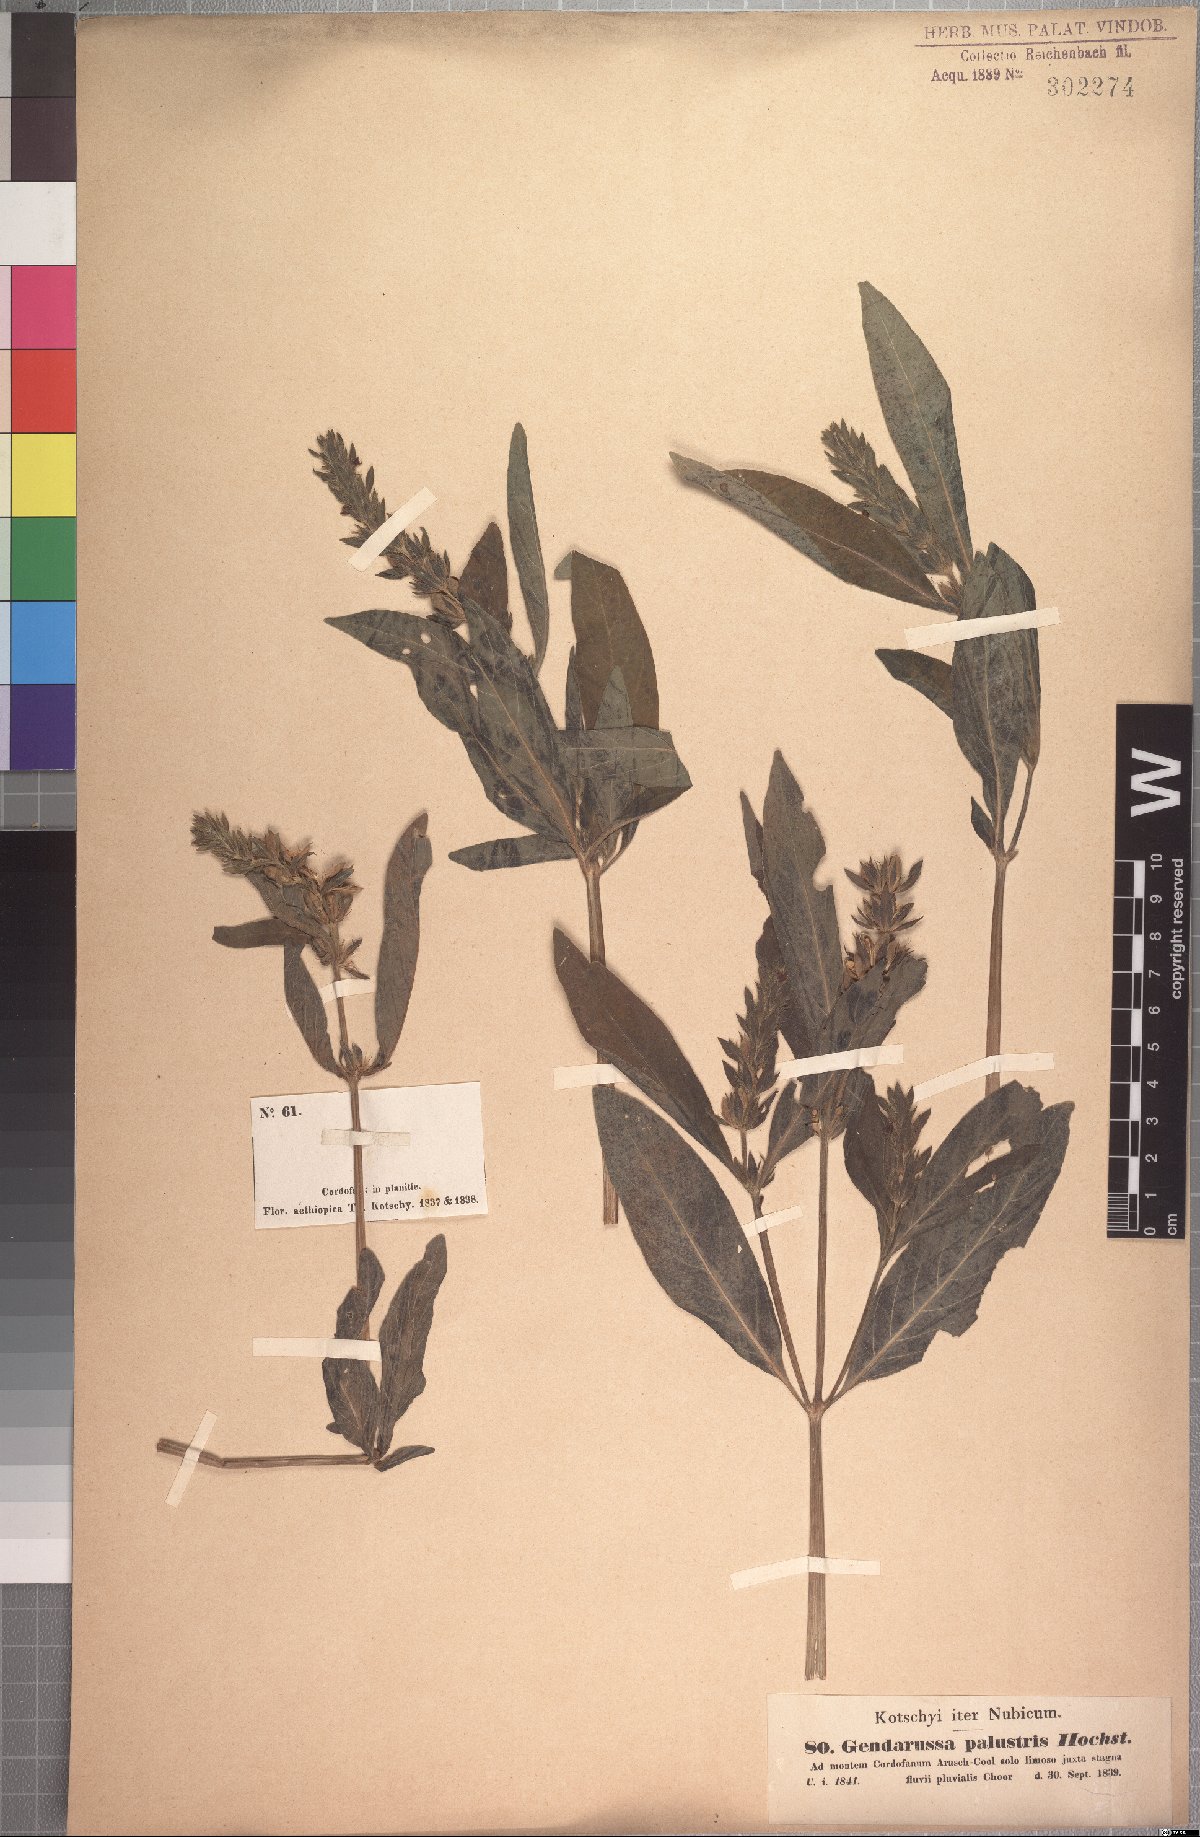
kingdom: Plantae
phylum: Tracheophyta
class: Magnoliopsida
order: Lamiales
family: Acanthaceae
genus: Justicia
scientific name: Justicia flava
